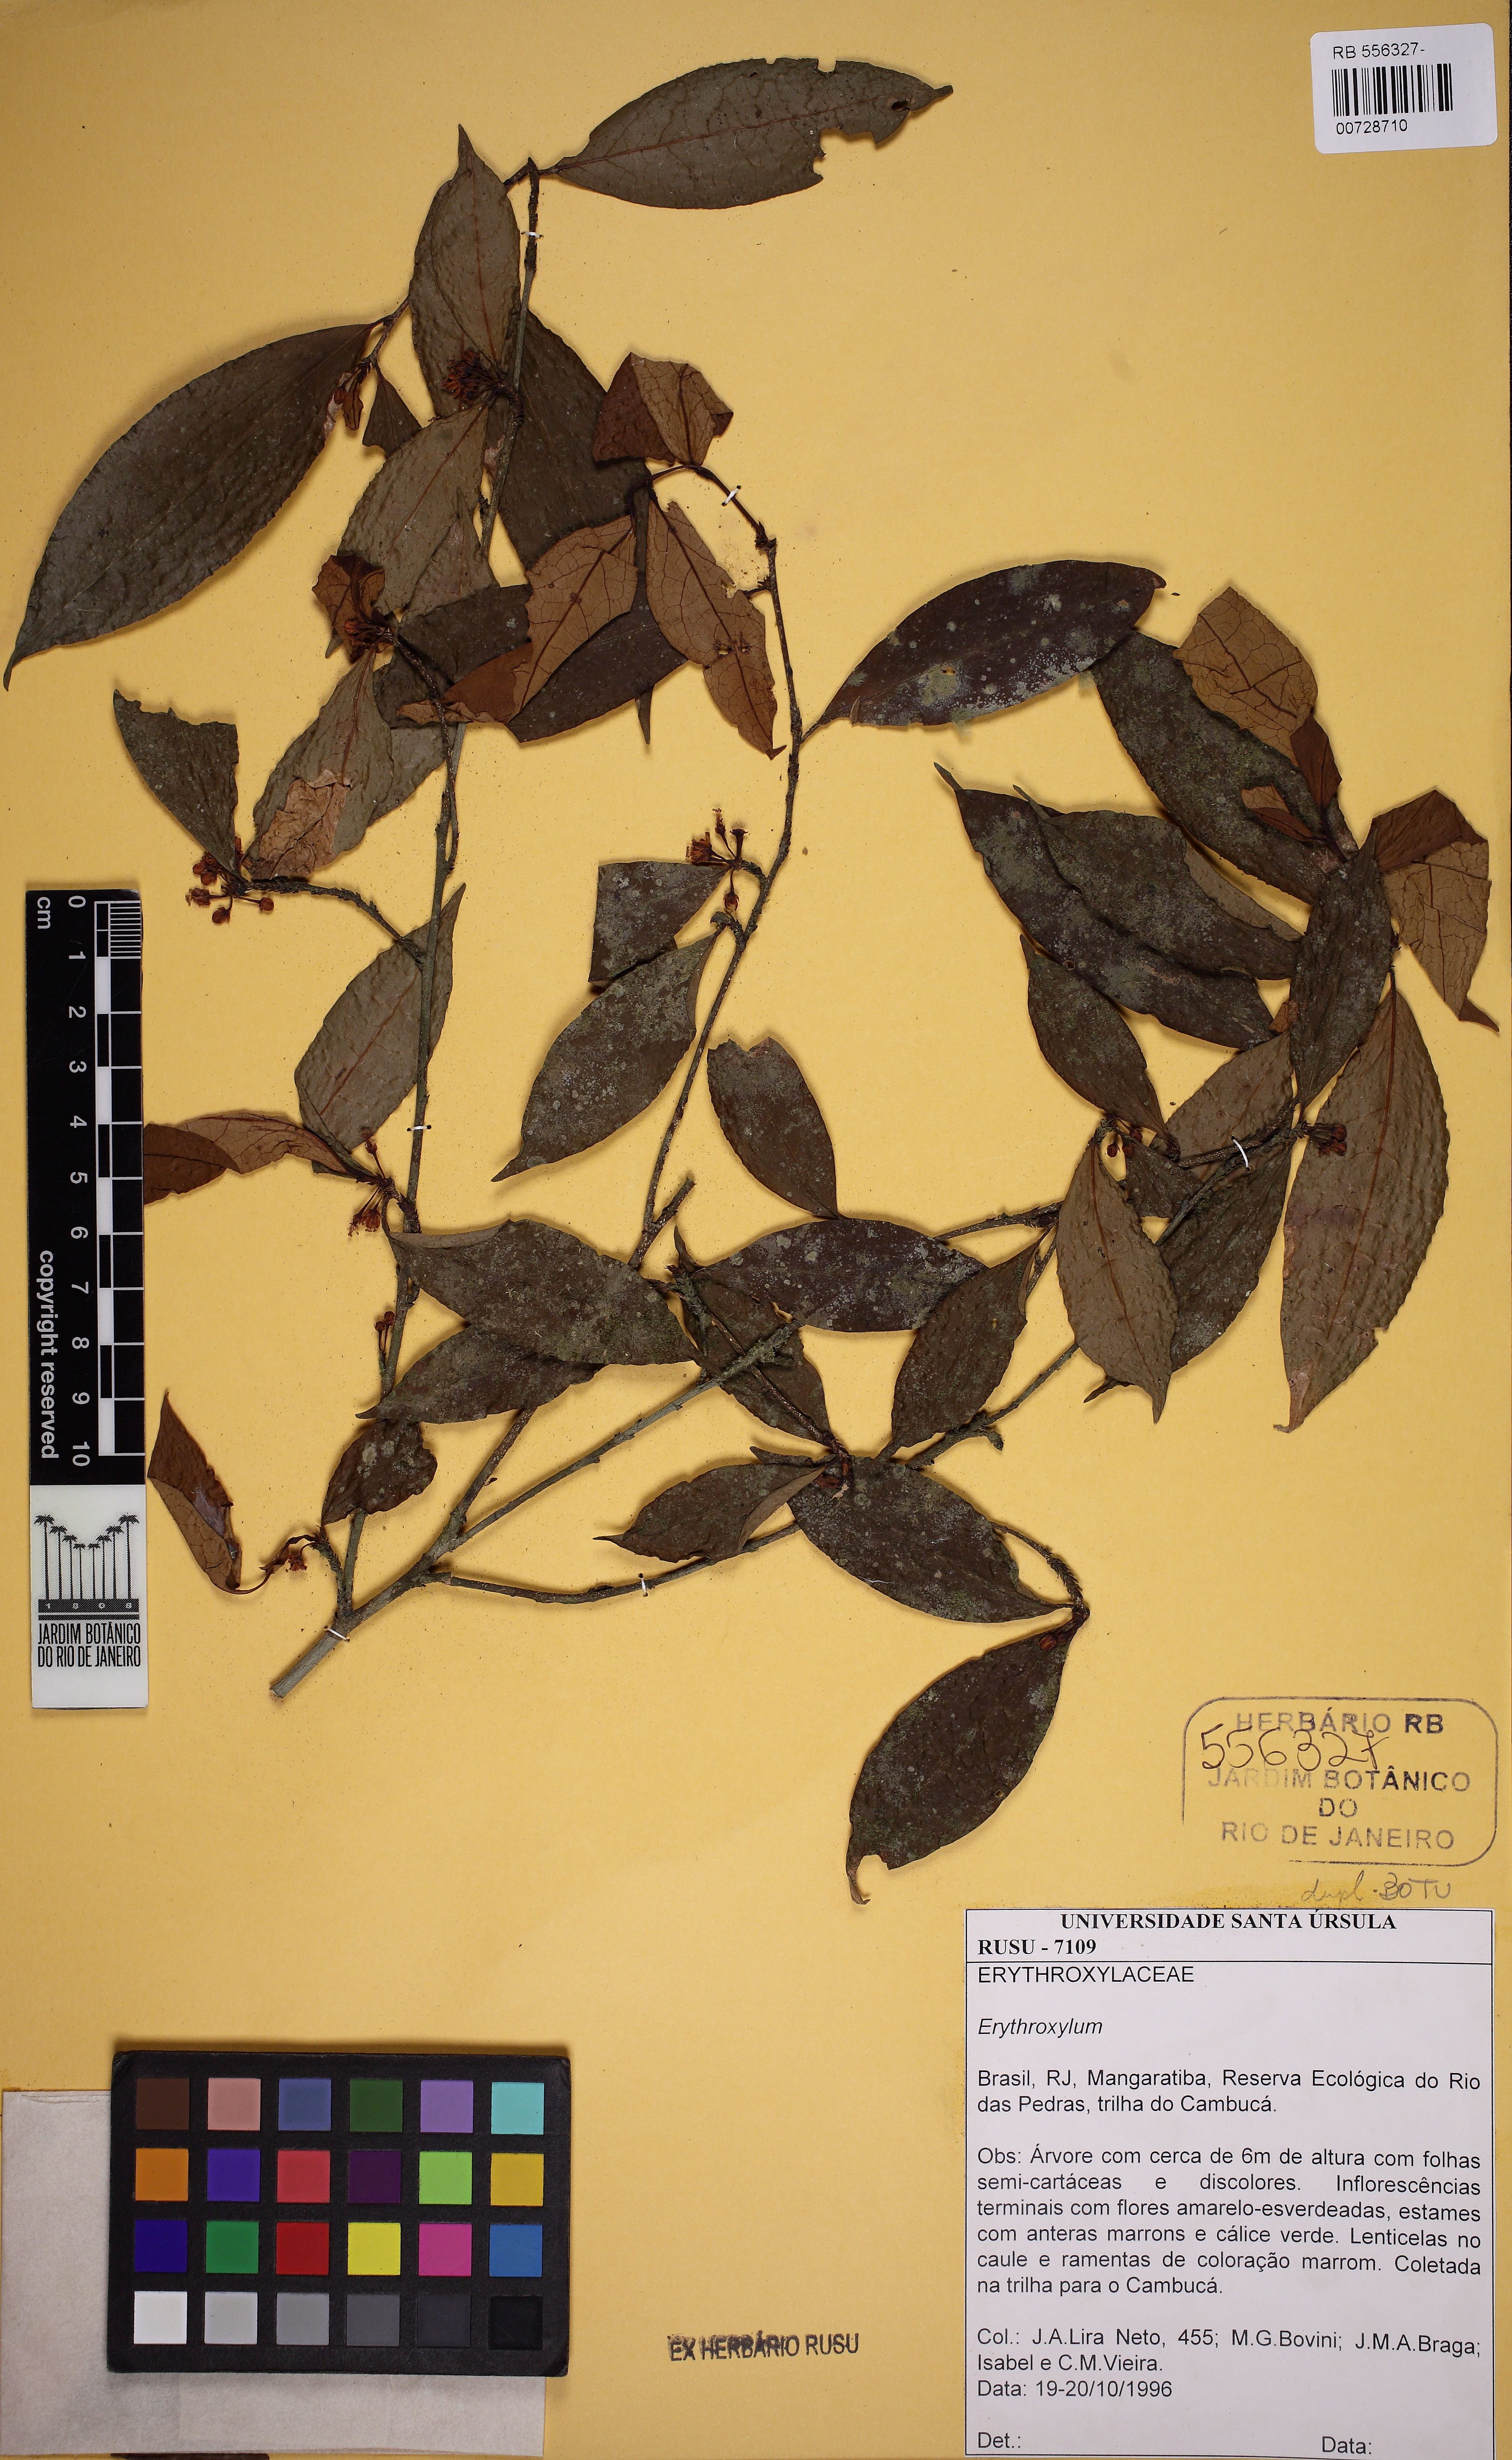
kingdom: Plantae
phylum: Tracheophyta
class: Magnoliopsida
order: Malpighiales
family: Erythroxylaceae
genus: Erythroxylum
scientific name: Erythroxylum cuspidifolium
